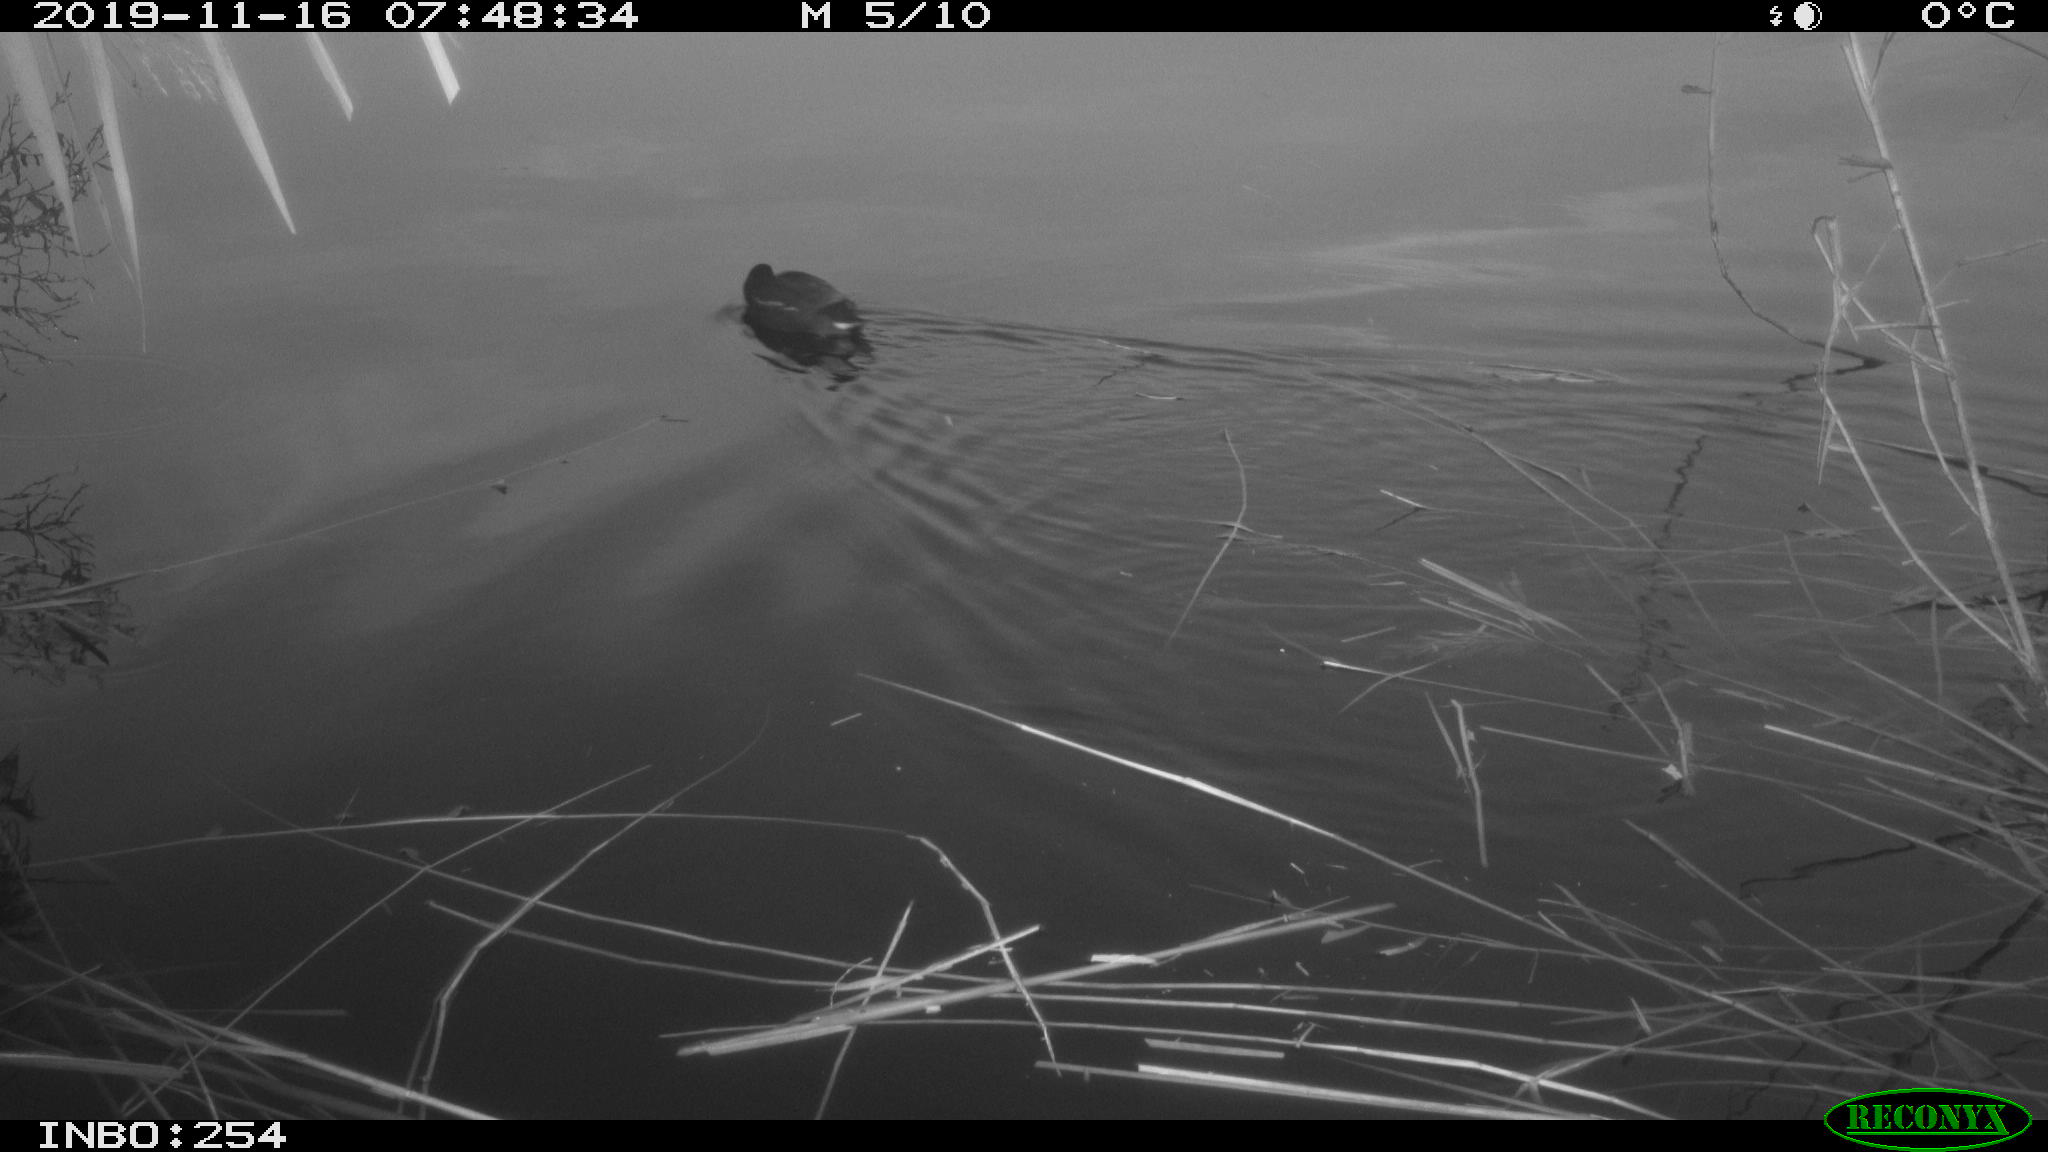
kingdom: Animalia
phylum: Chordata
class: Aves
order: Gruiformes
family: Rallidae
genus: Gallinula
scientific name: Gallinula chloropus
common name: Common moorhen
